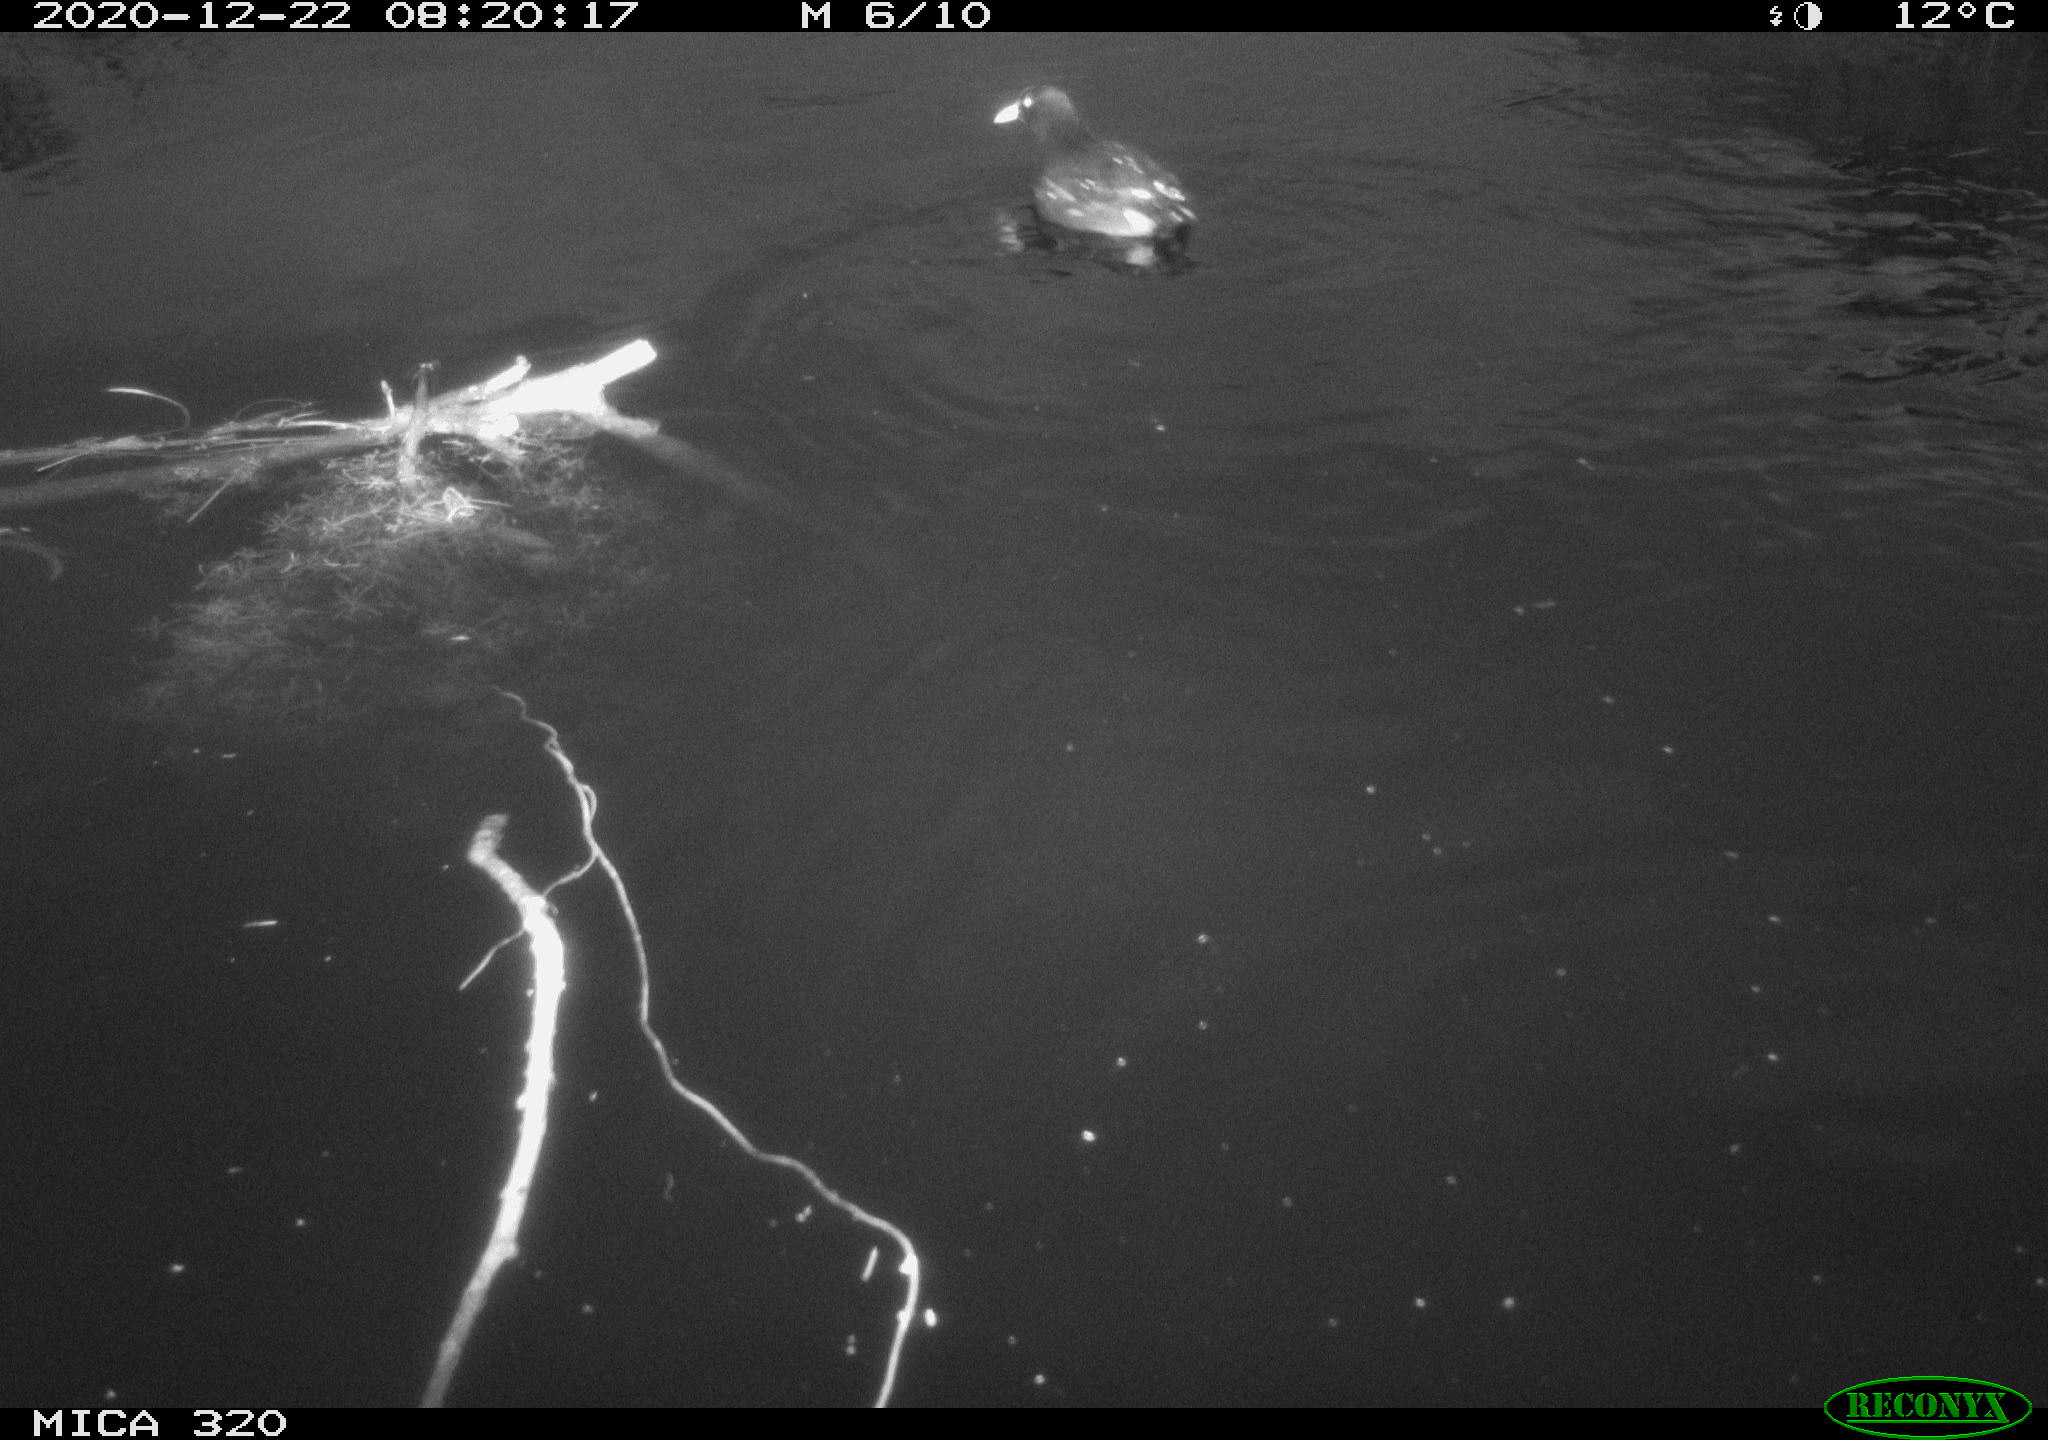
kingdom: Animalia
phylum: Chordata
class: Aves
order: Gruiformes
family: Rallidae
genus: Gallinula
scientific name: Gallinula chloropus
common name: Common moorhen
